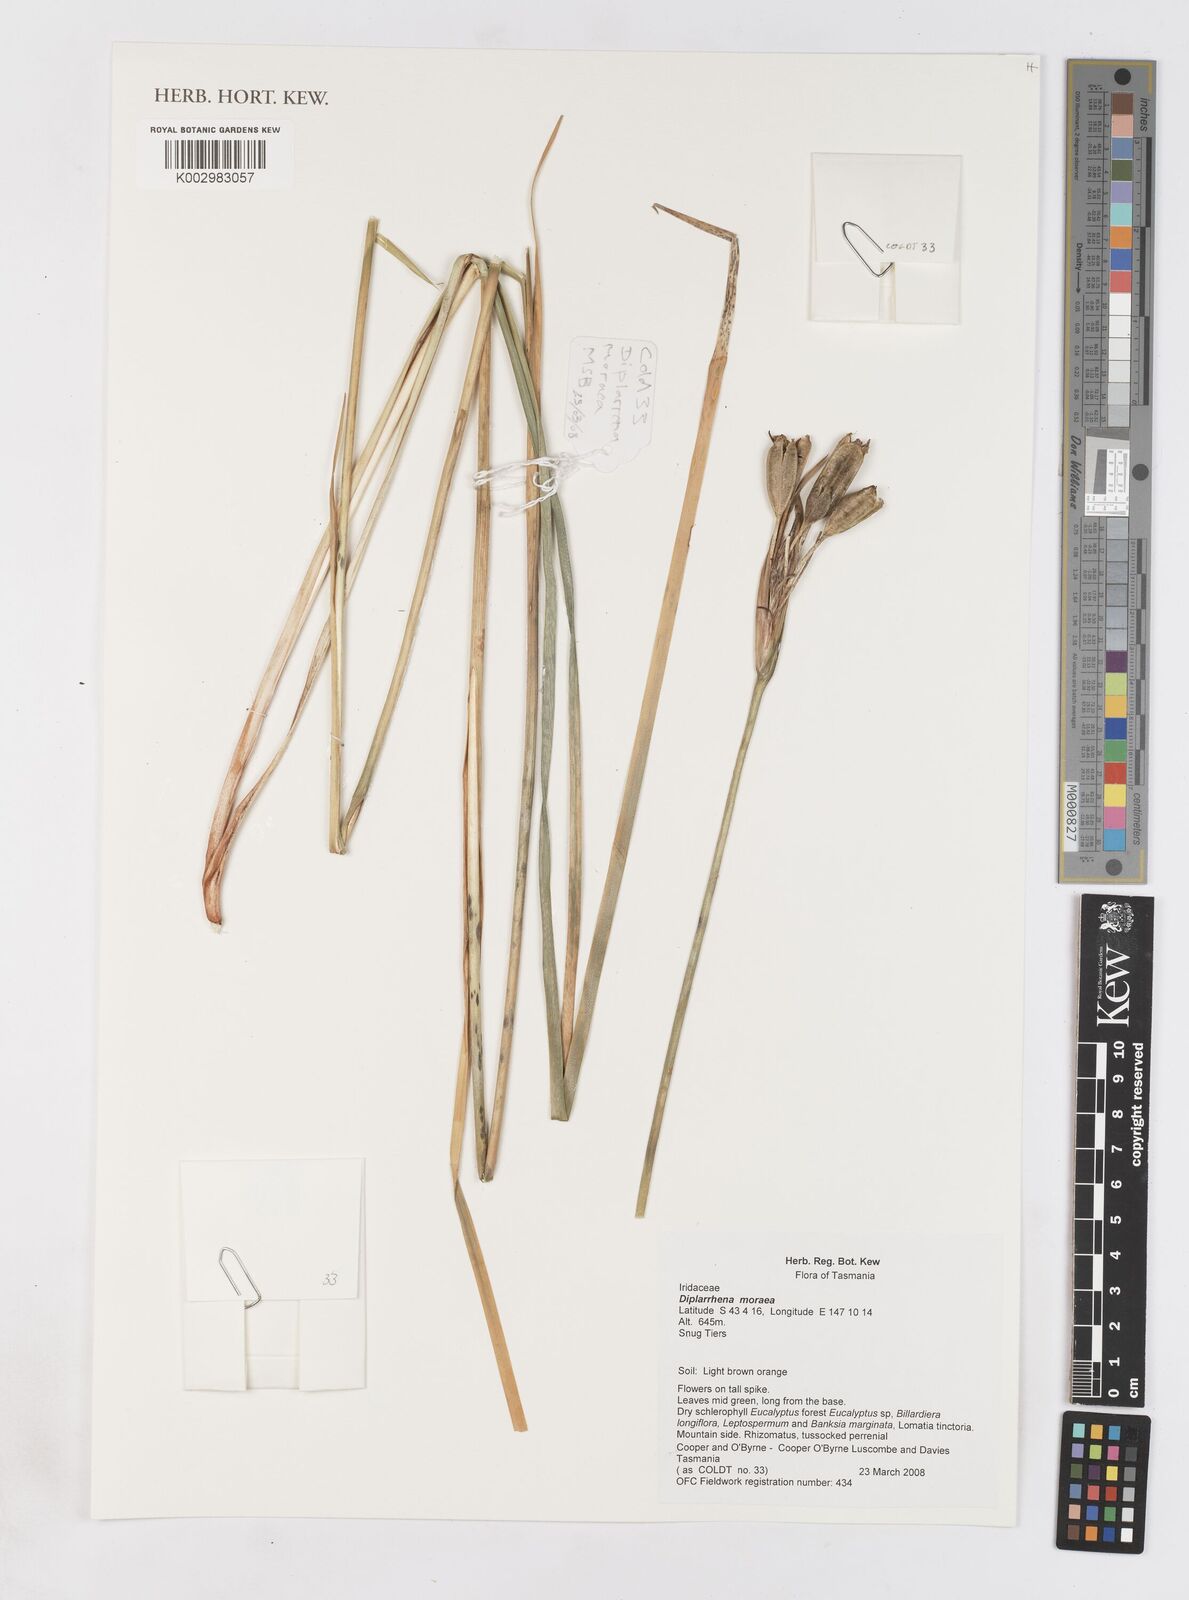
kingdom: Plantae
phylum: Tracheophyta
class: Liliopsida
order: Asparagales
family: Iridaceae
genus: Diplarrena
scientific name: Diplarrena moraea
